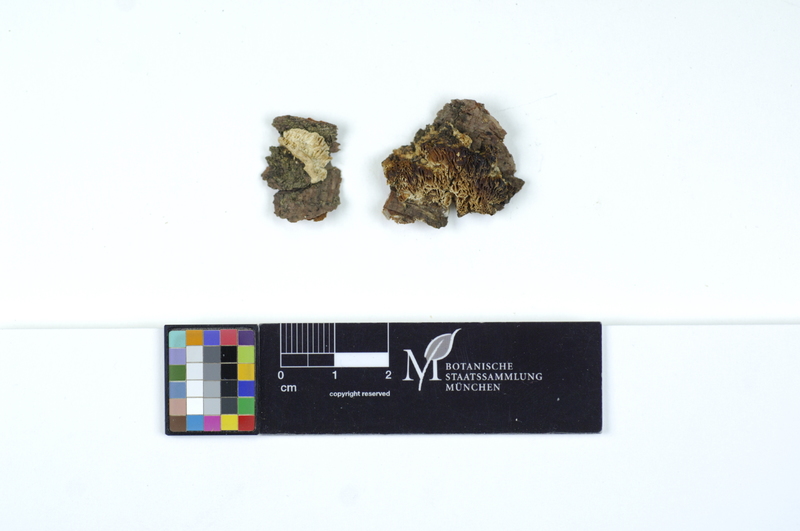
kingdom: Plantae
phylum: Tracheophyta
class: Pinopsida
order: Pinales
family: Pinaceae
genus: Pinus
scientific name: Pinus
